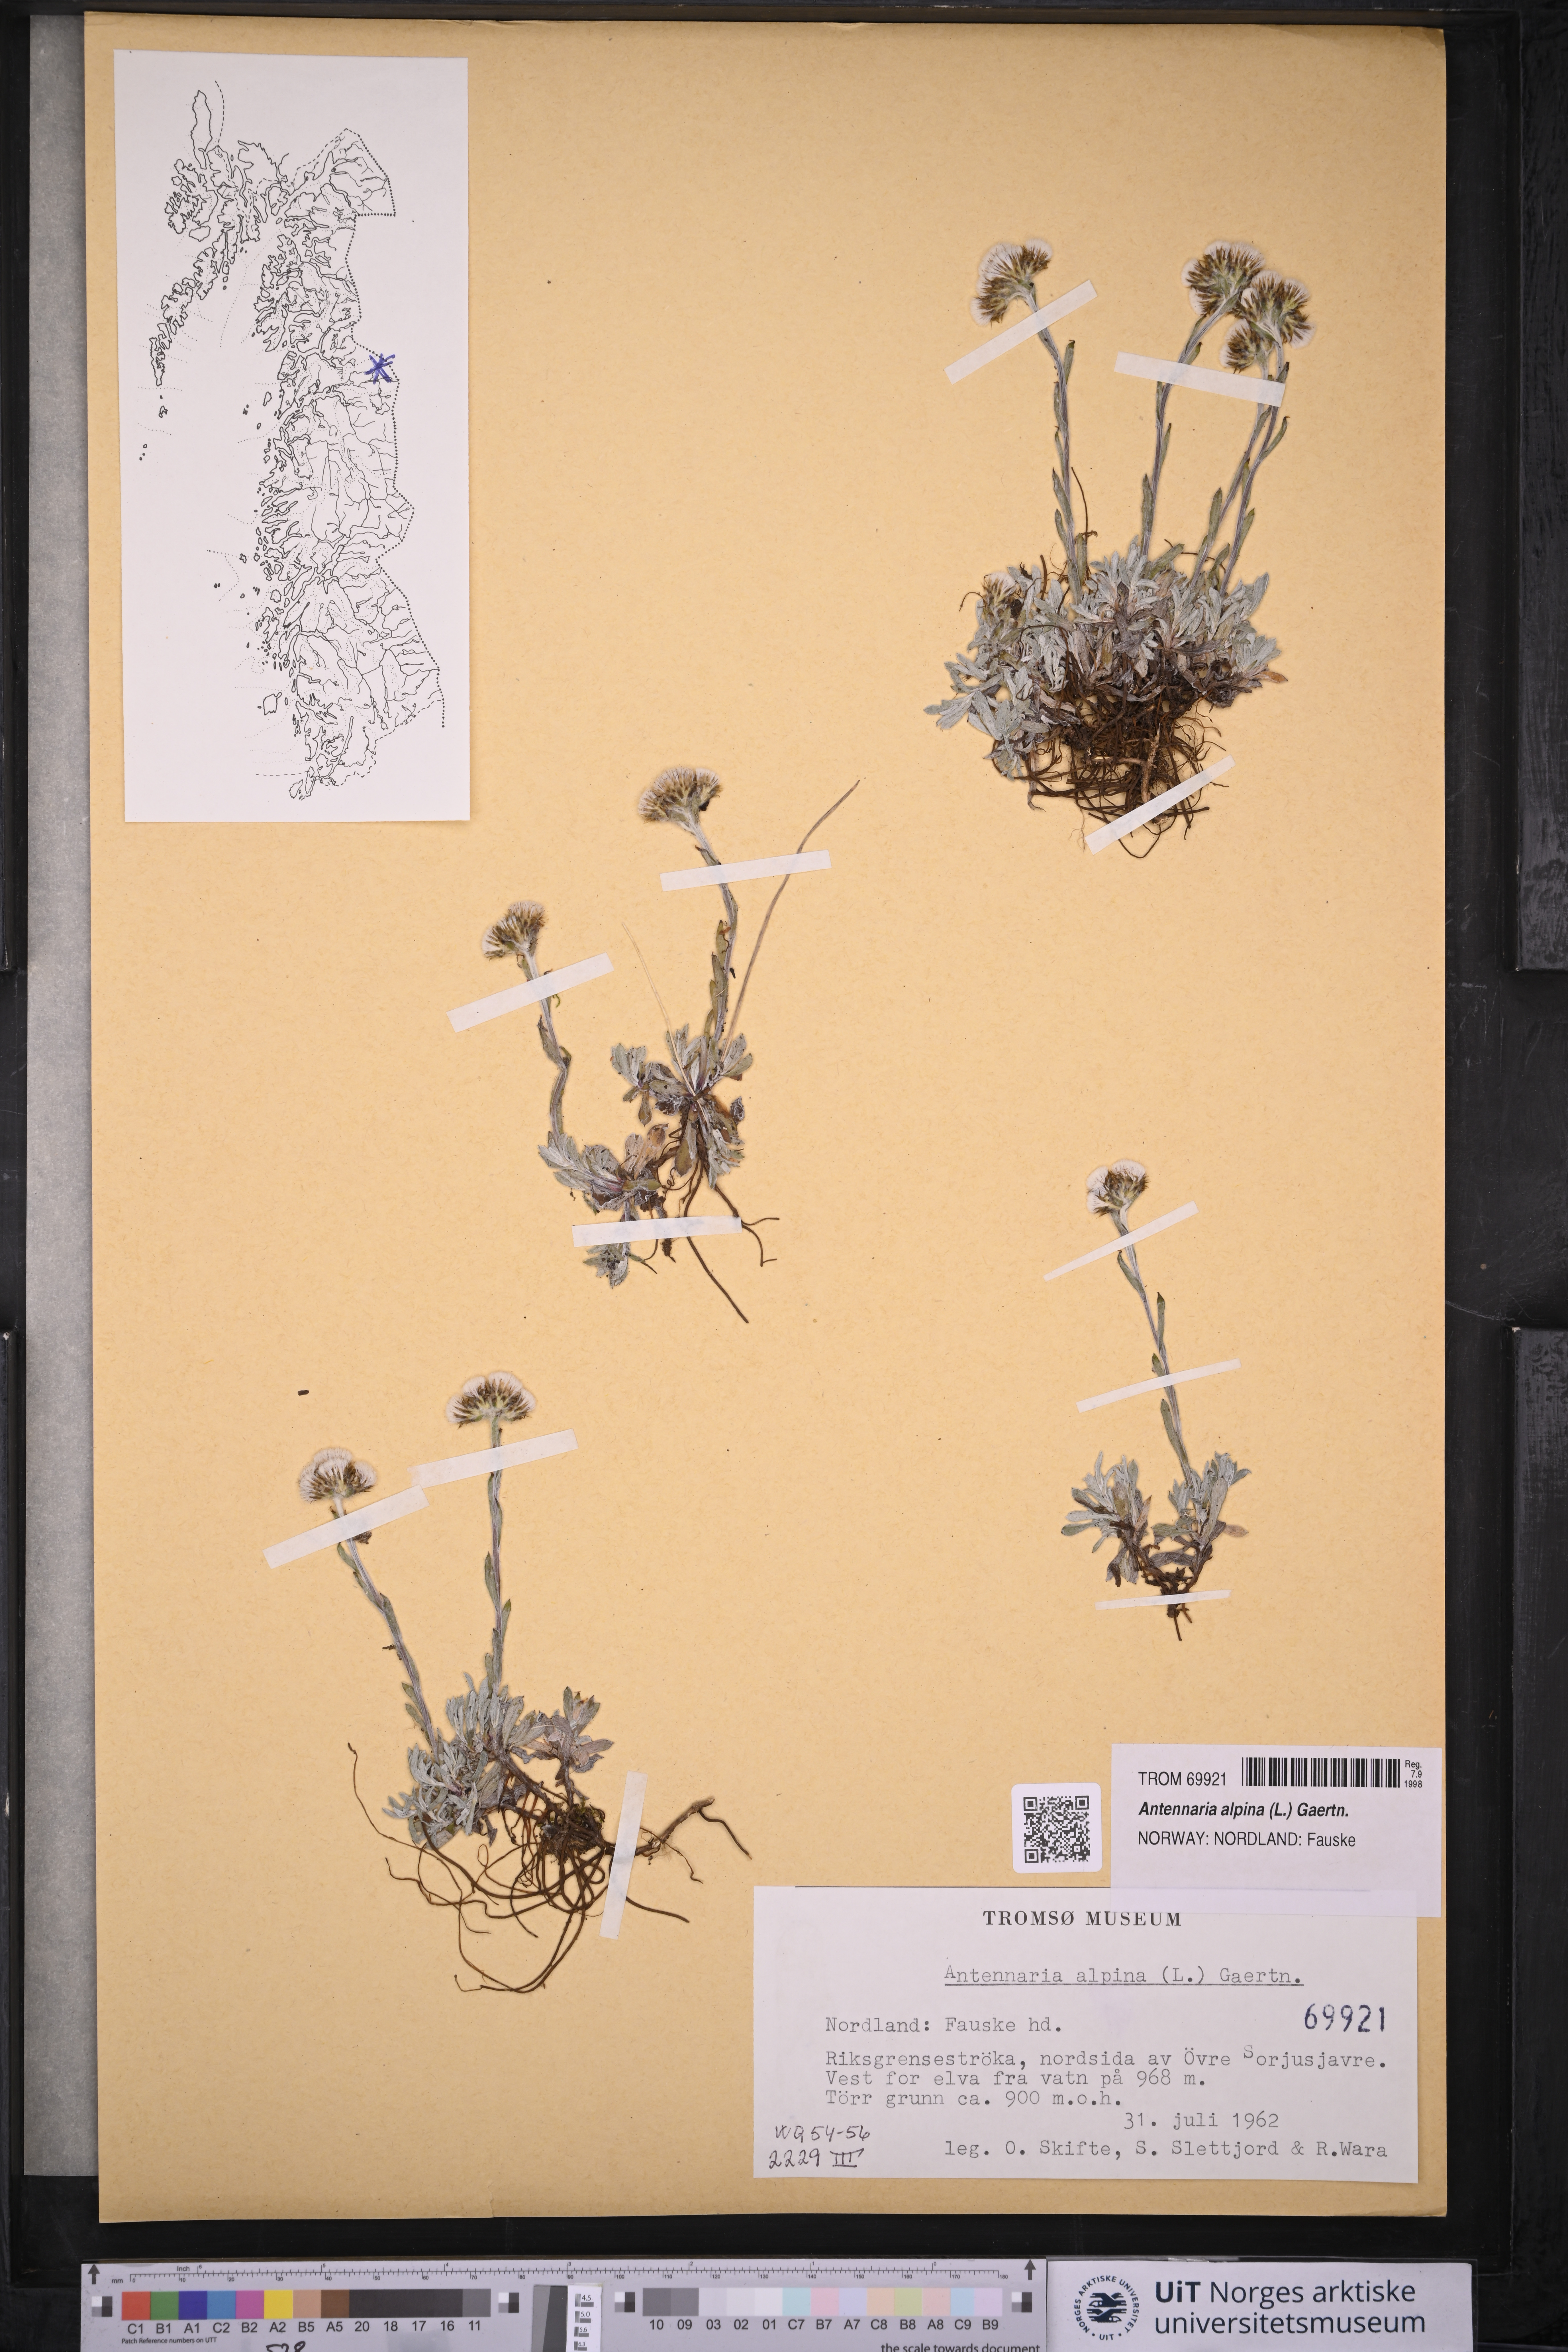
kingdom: Plantae
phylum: Tracheophyta
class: Magnoliopsida
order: Asterales
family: Asteraceae
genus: Antennaria
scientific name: Antennaria alpina
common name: Alpine pussytoes
